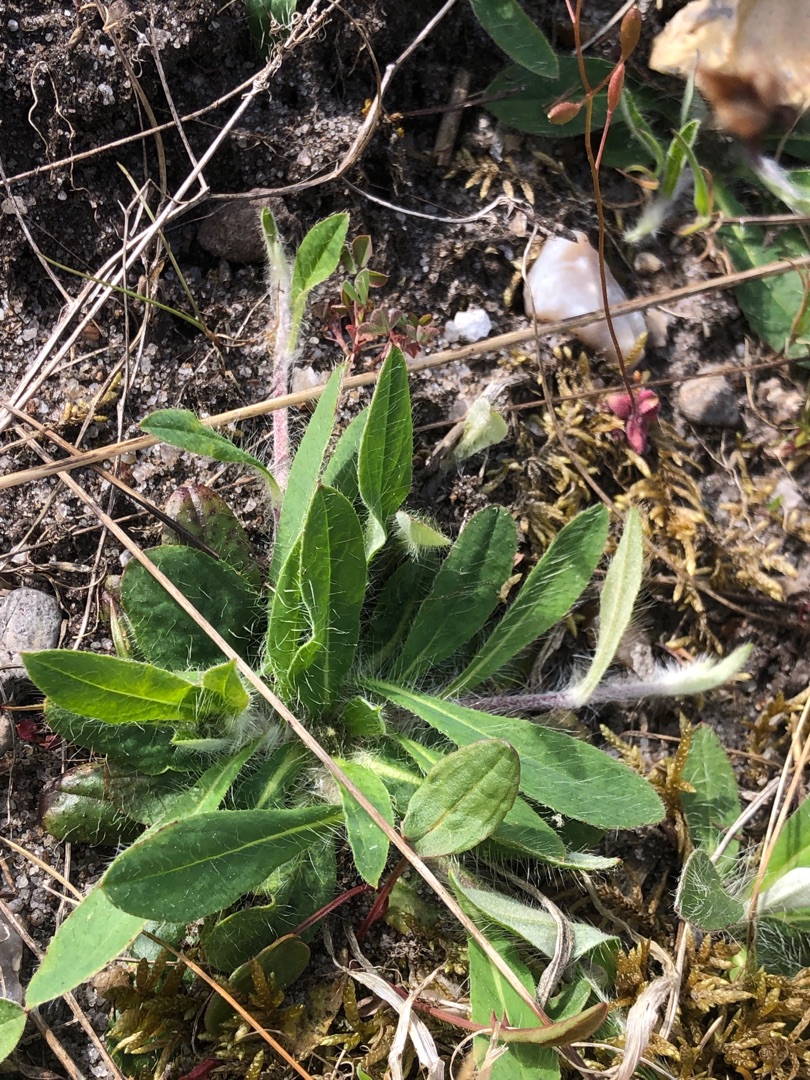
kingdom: Plantae
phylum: Tracheophyta
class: Magnoliopsida
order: Asterales
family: Asteraceae
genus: Pilosella
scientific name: Pilosella officinarum
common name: Håret høgeurt
